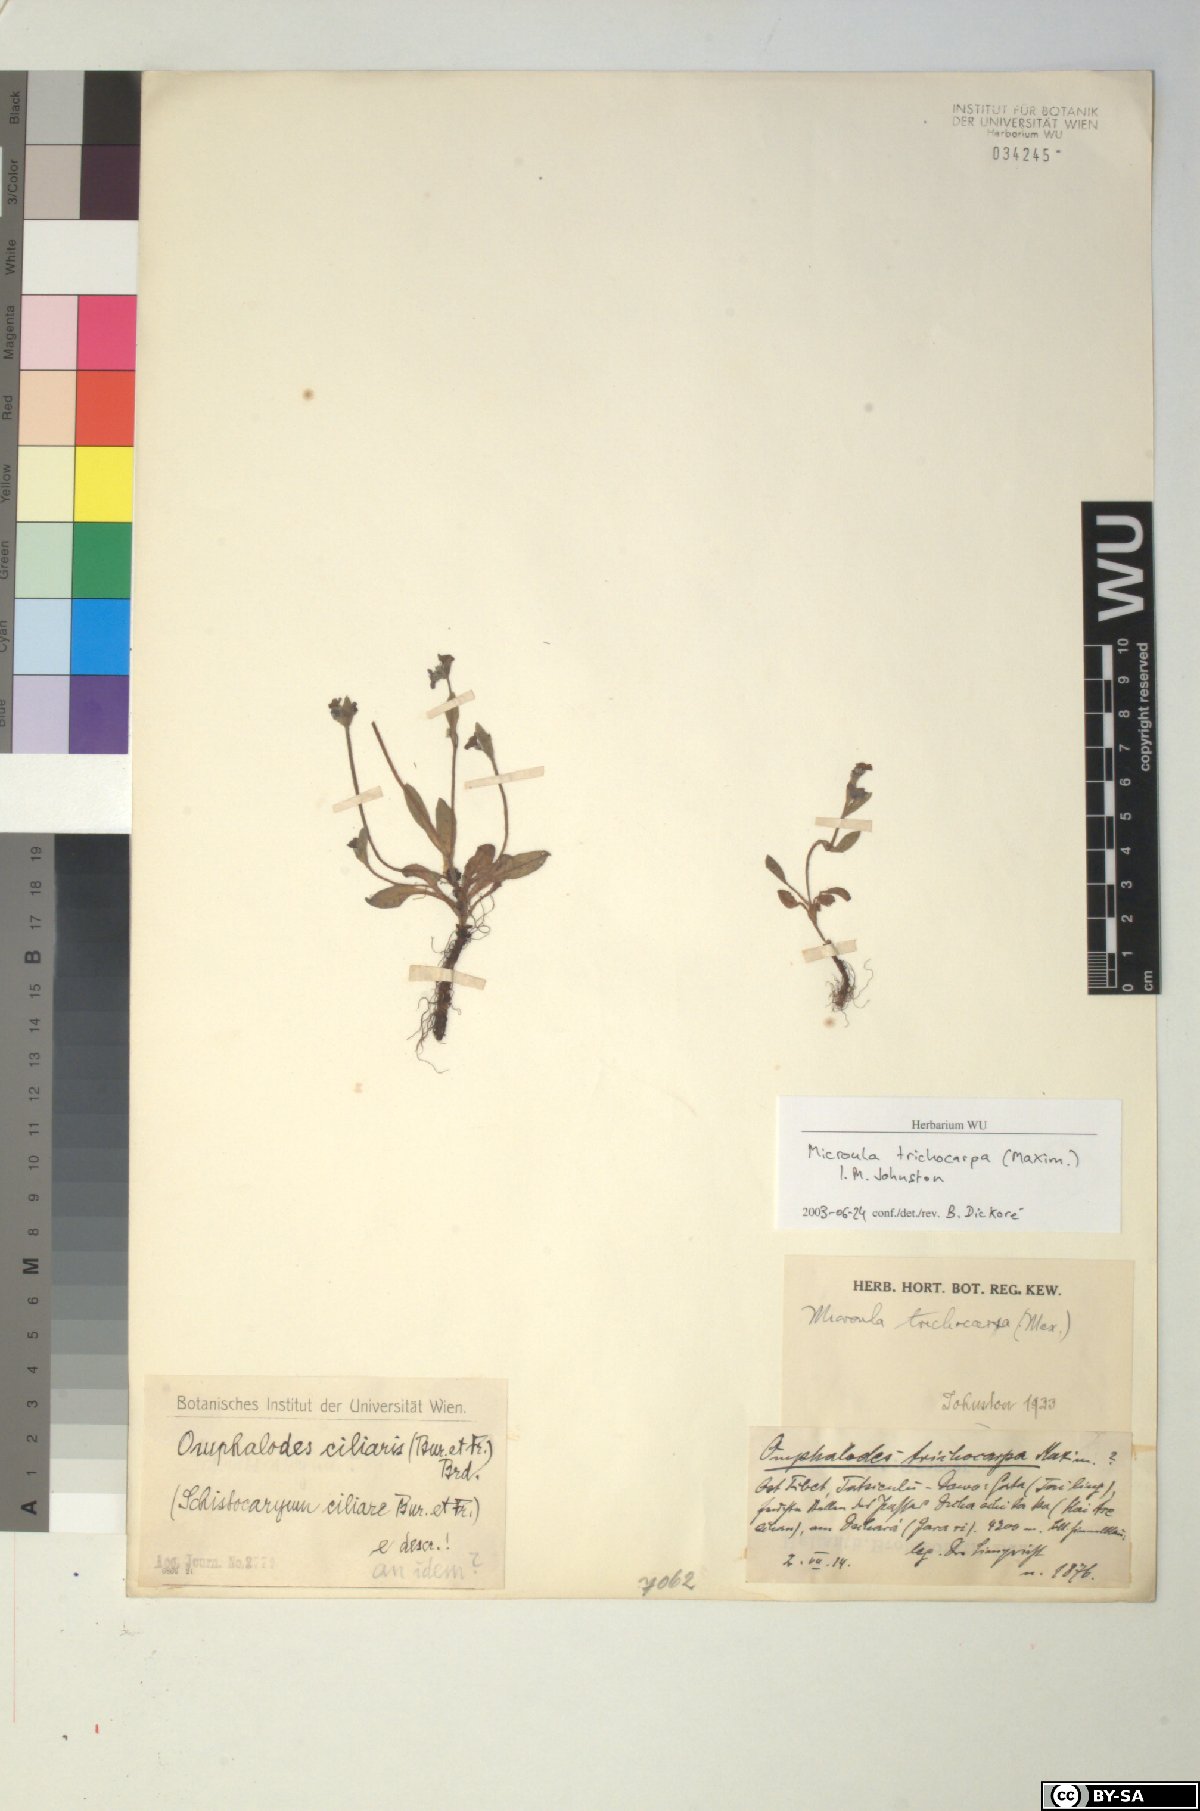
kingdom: Plantae
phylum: Tracheophyta
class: Magnoliopsida
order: Boraginales
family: Boraginaceae
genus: Microula
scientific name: Microula trichocarpa
